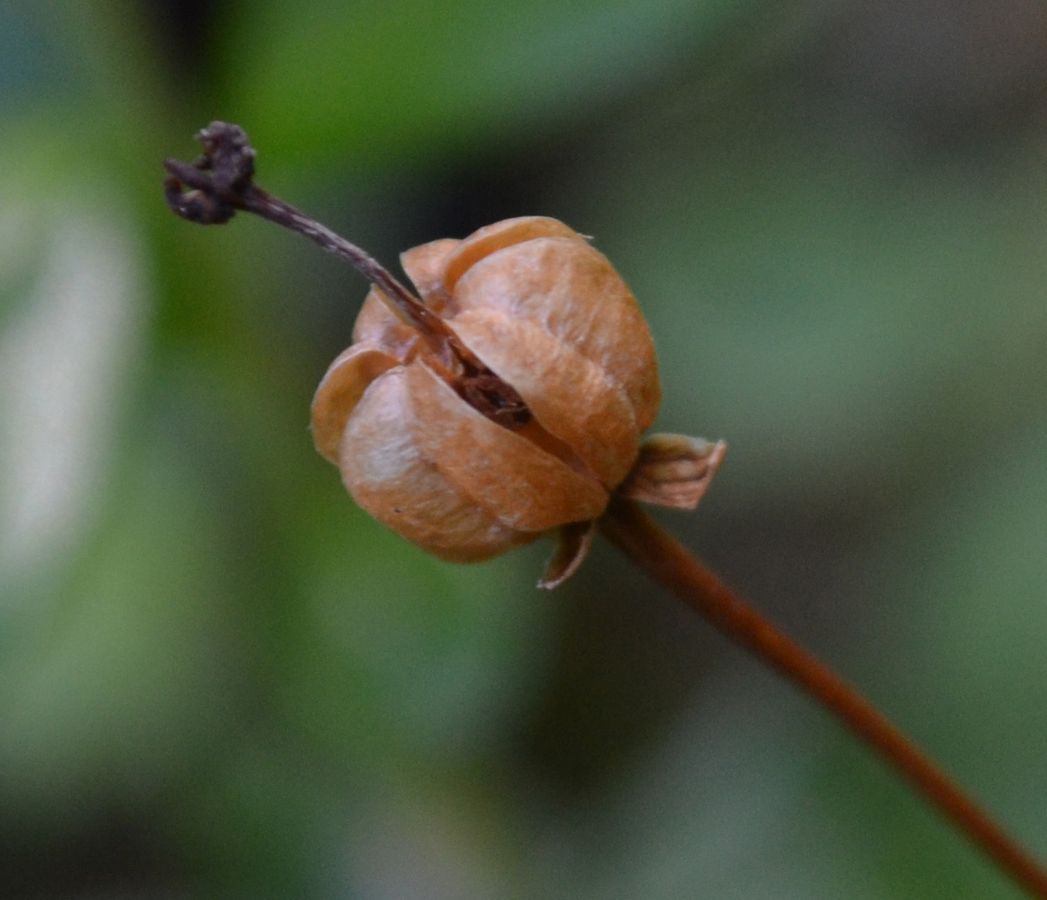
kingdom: Plantae
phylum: Tracheophyta
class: Magnoliopsida
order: Ericales
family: Ericaceae
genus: Moneses
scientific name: Moneses uniflora
